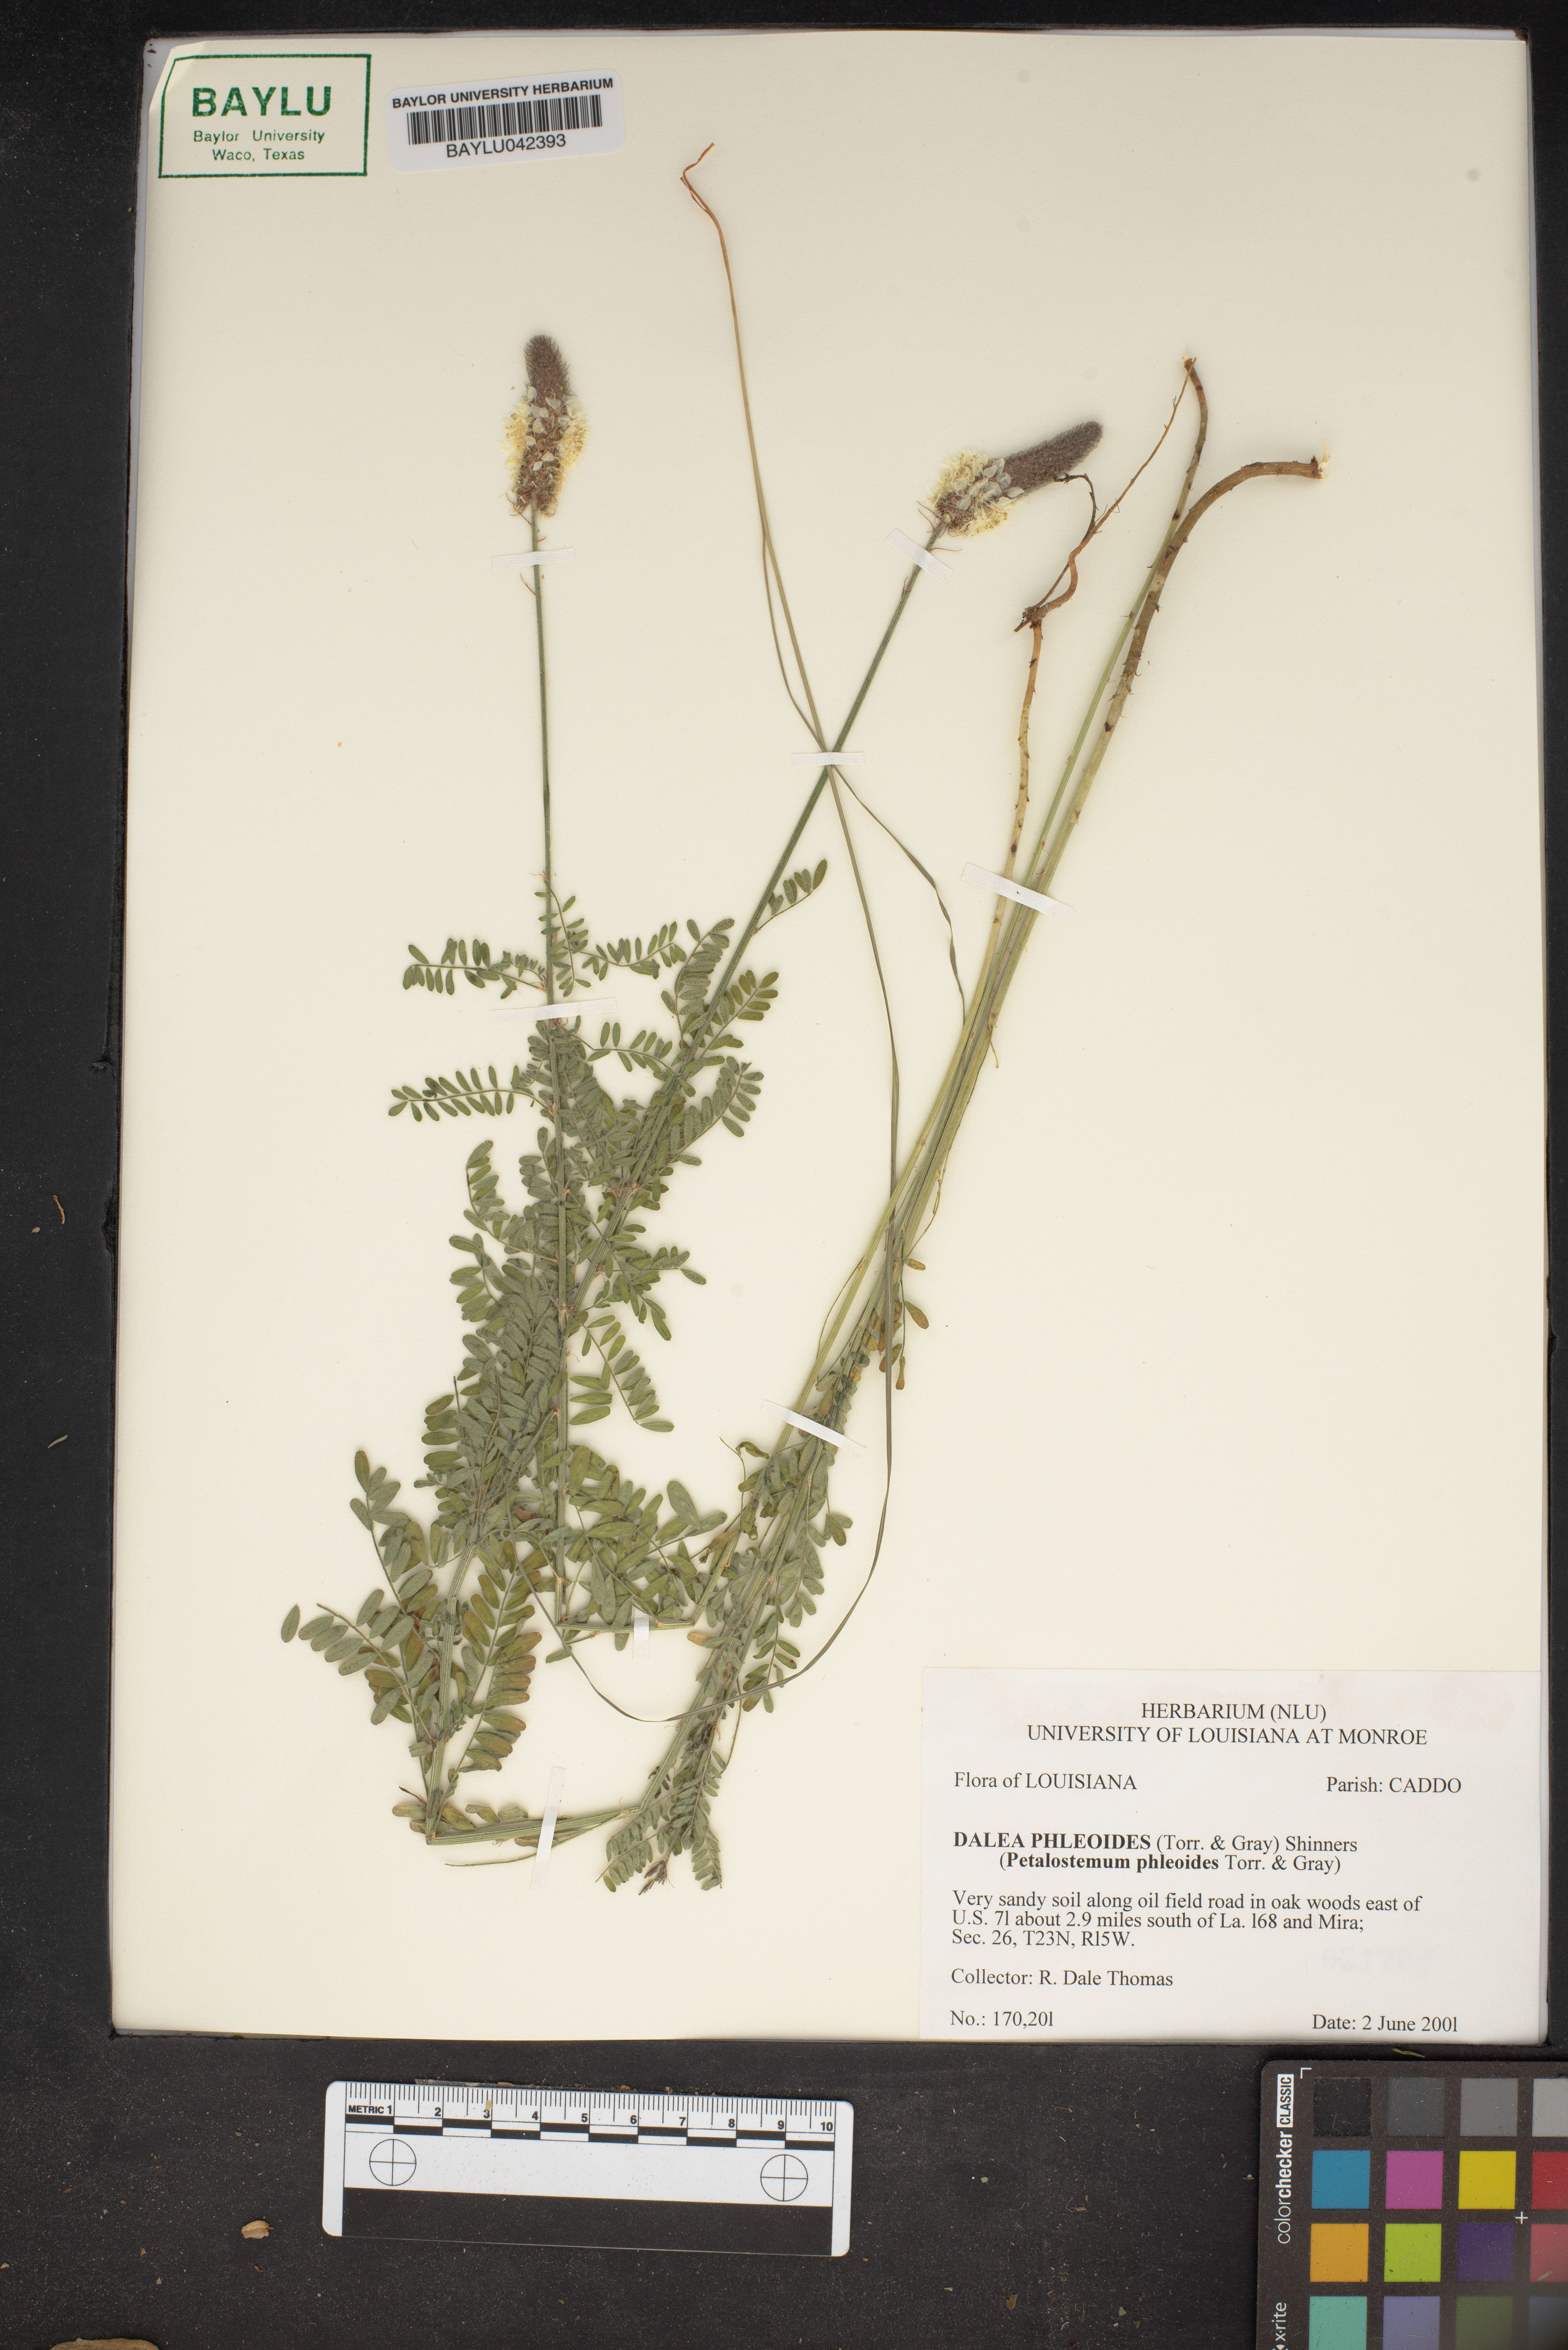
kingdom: Plantae
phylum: Tracheophyta
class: Magnoliopsida
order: Fabales
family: Fabaceae
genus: Dalea
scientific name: Dalea phleoides
